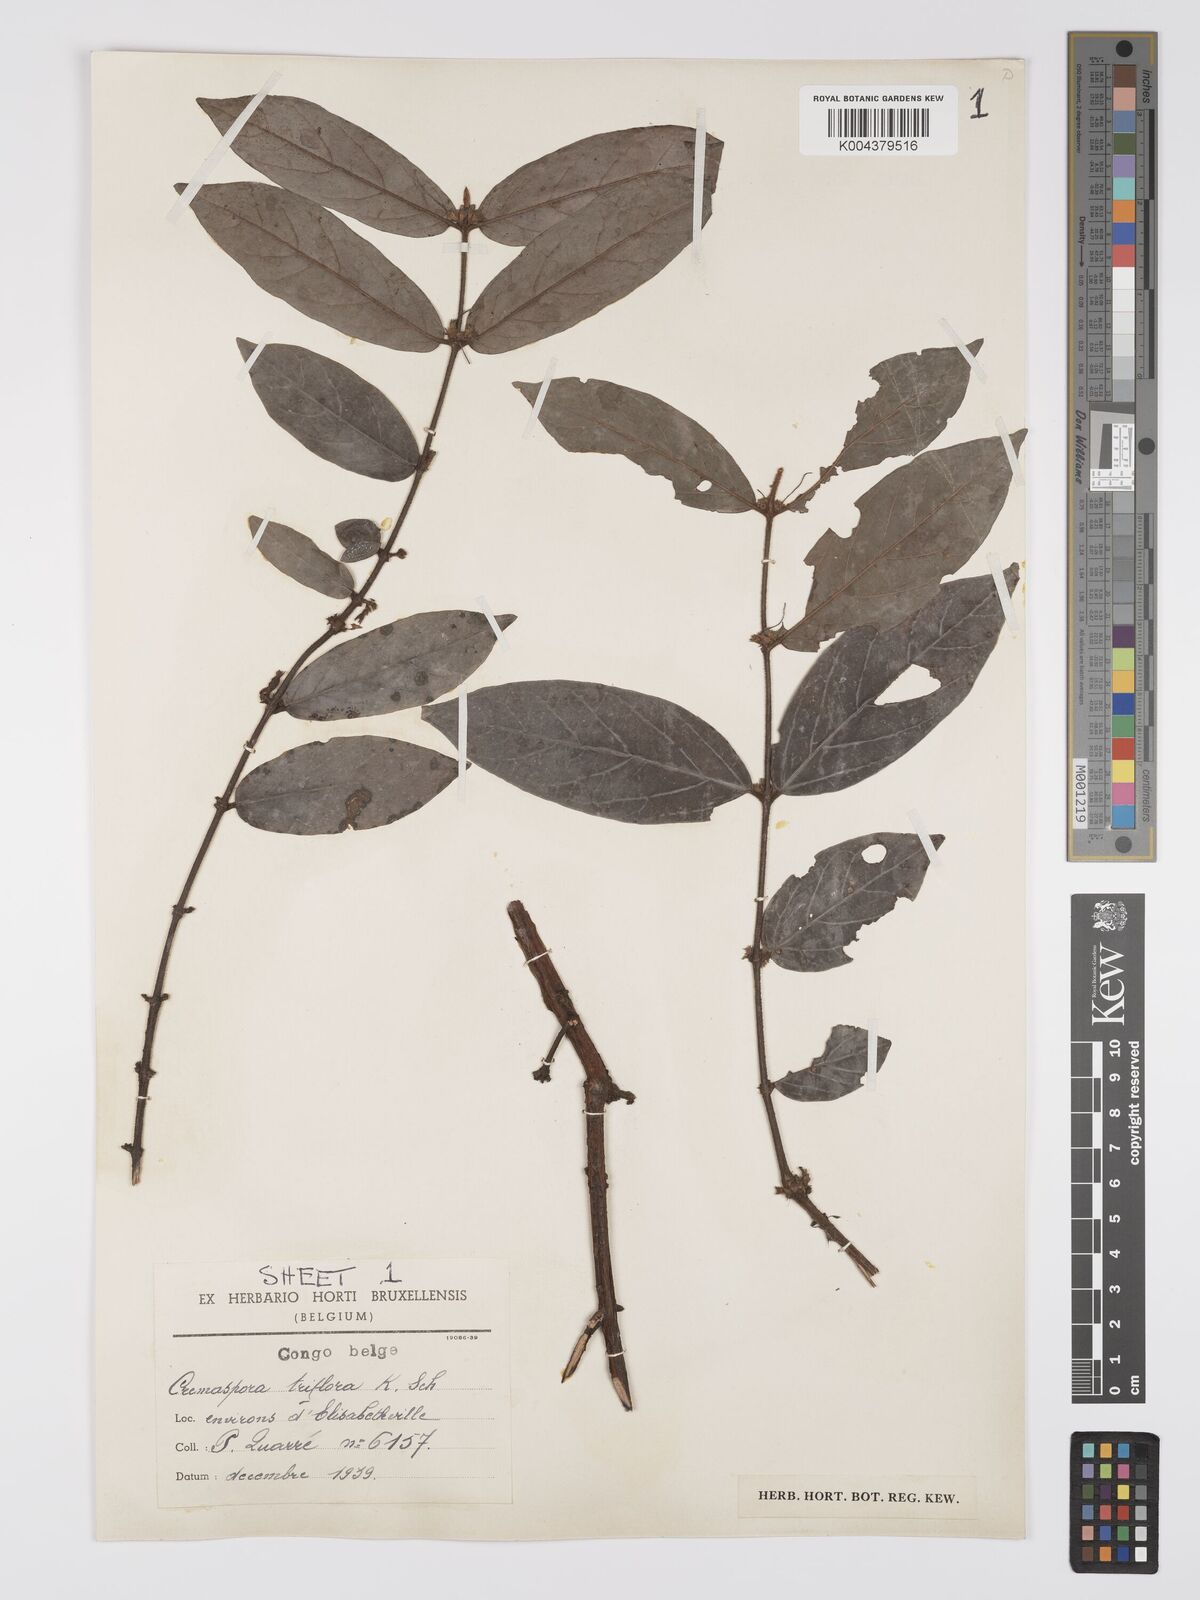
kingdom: Plantae
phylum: Tracheophyta
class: Magnoliopsida
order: Gentianales
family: Rubiaceae
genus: Cremaspora
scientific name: Cremaspora triflora
